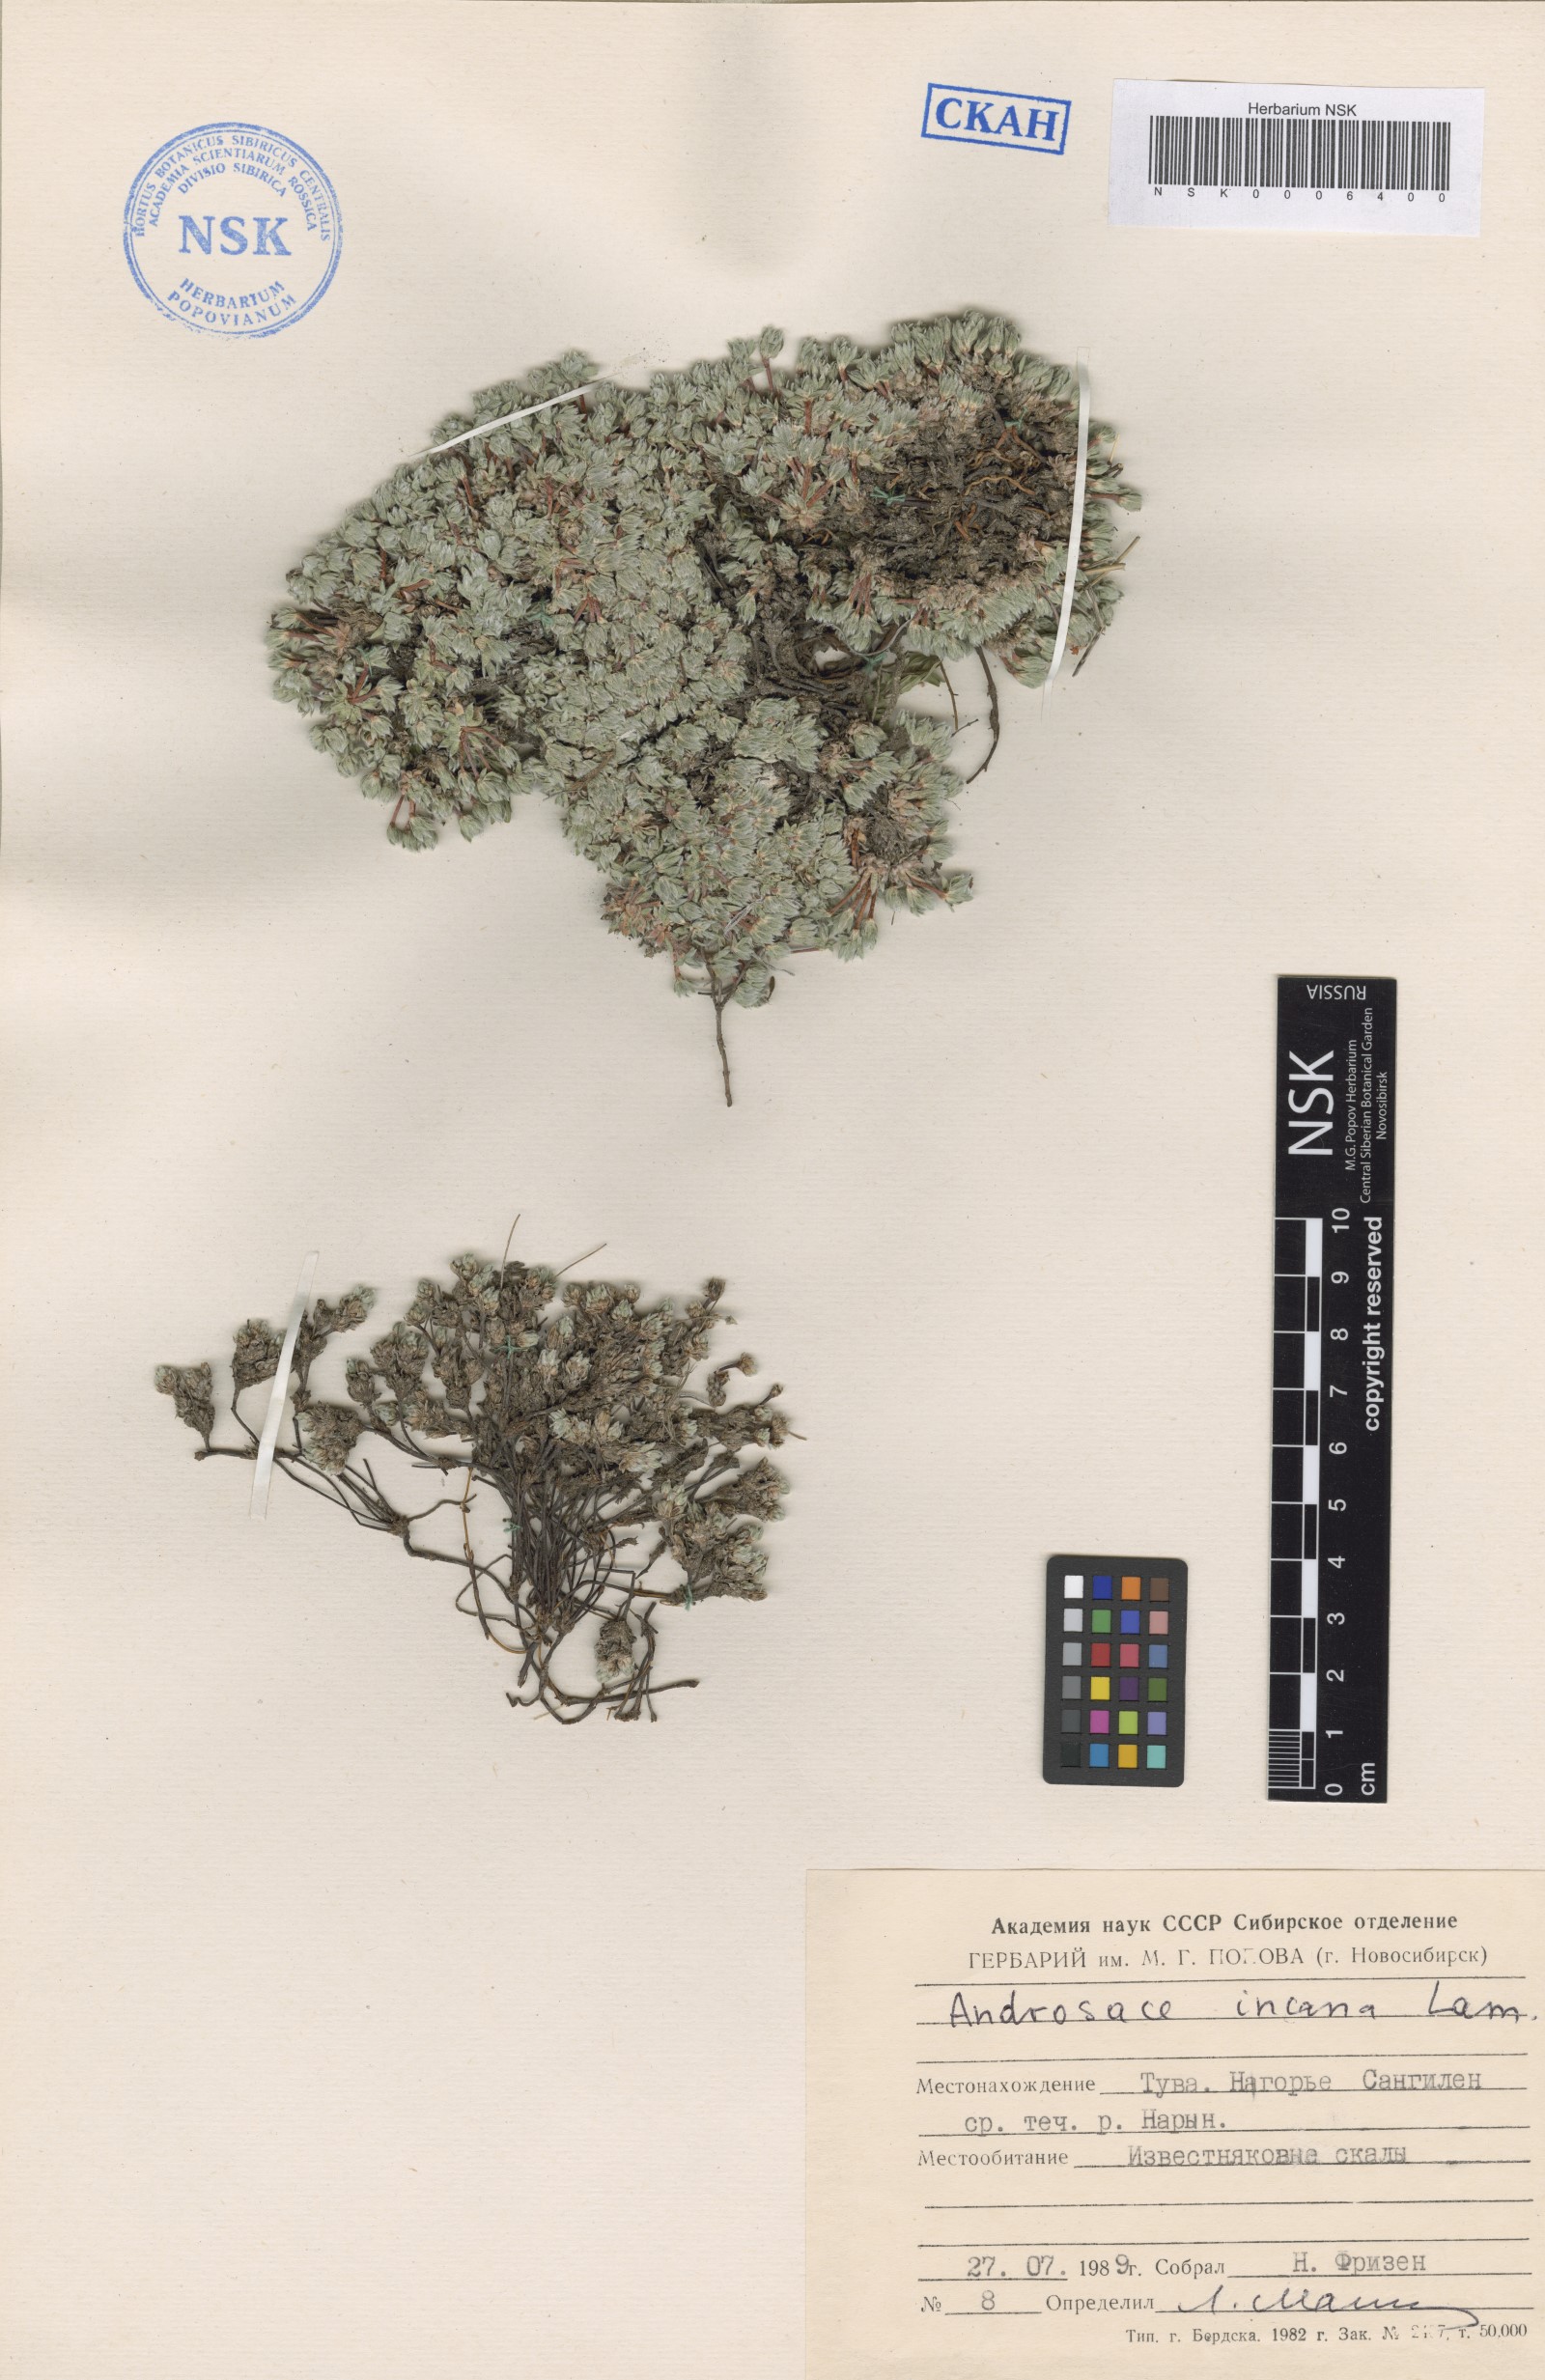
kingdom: Plantae
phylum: Tracheophyta
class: Magnoliopsida
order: Ericales
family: Primulaceae
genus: Androsace
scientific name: Androsace incana
